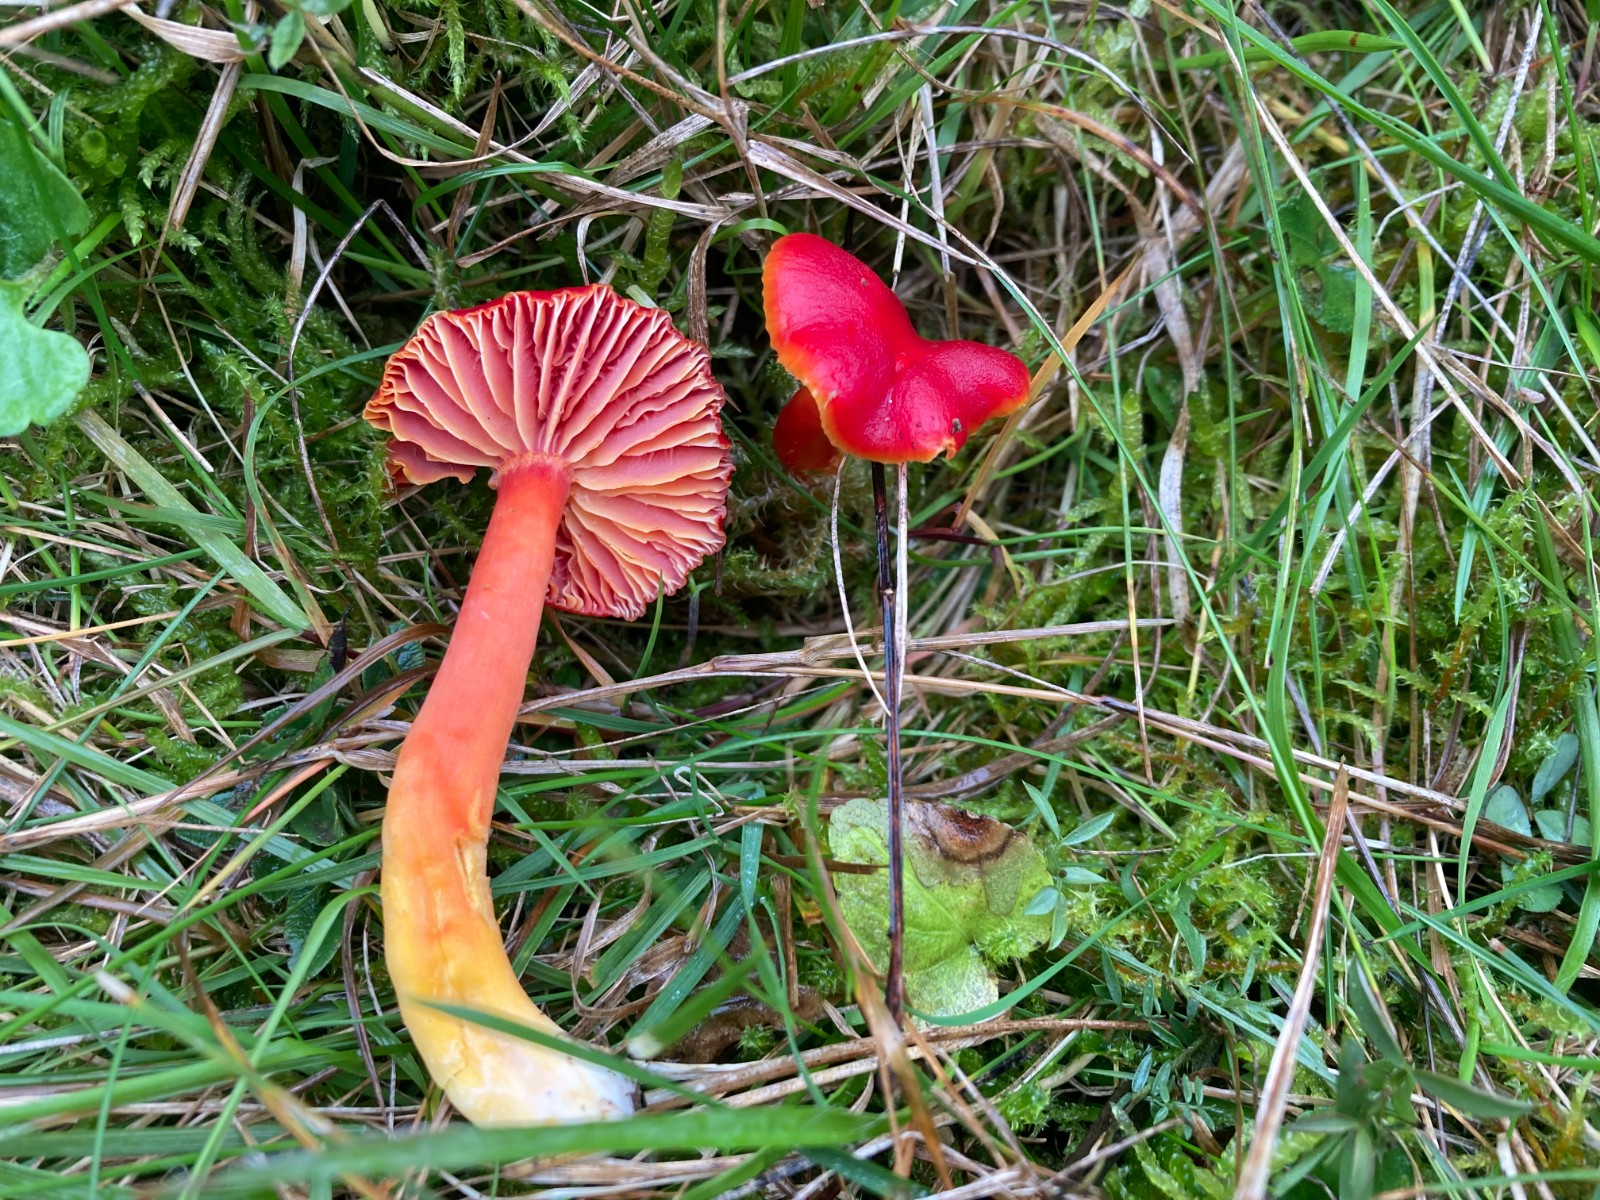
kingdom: Fungi
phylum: Basidiomycota
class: Agaricomycetes
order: Agaricales
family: Hygrophoraceae
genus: Hygrocybe
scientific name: Hygrocybe coccinea
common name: cinnober-vokshat
